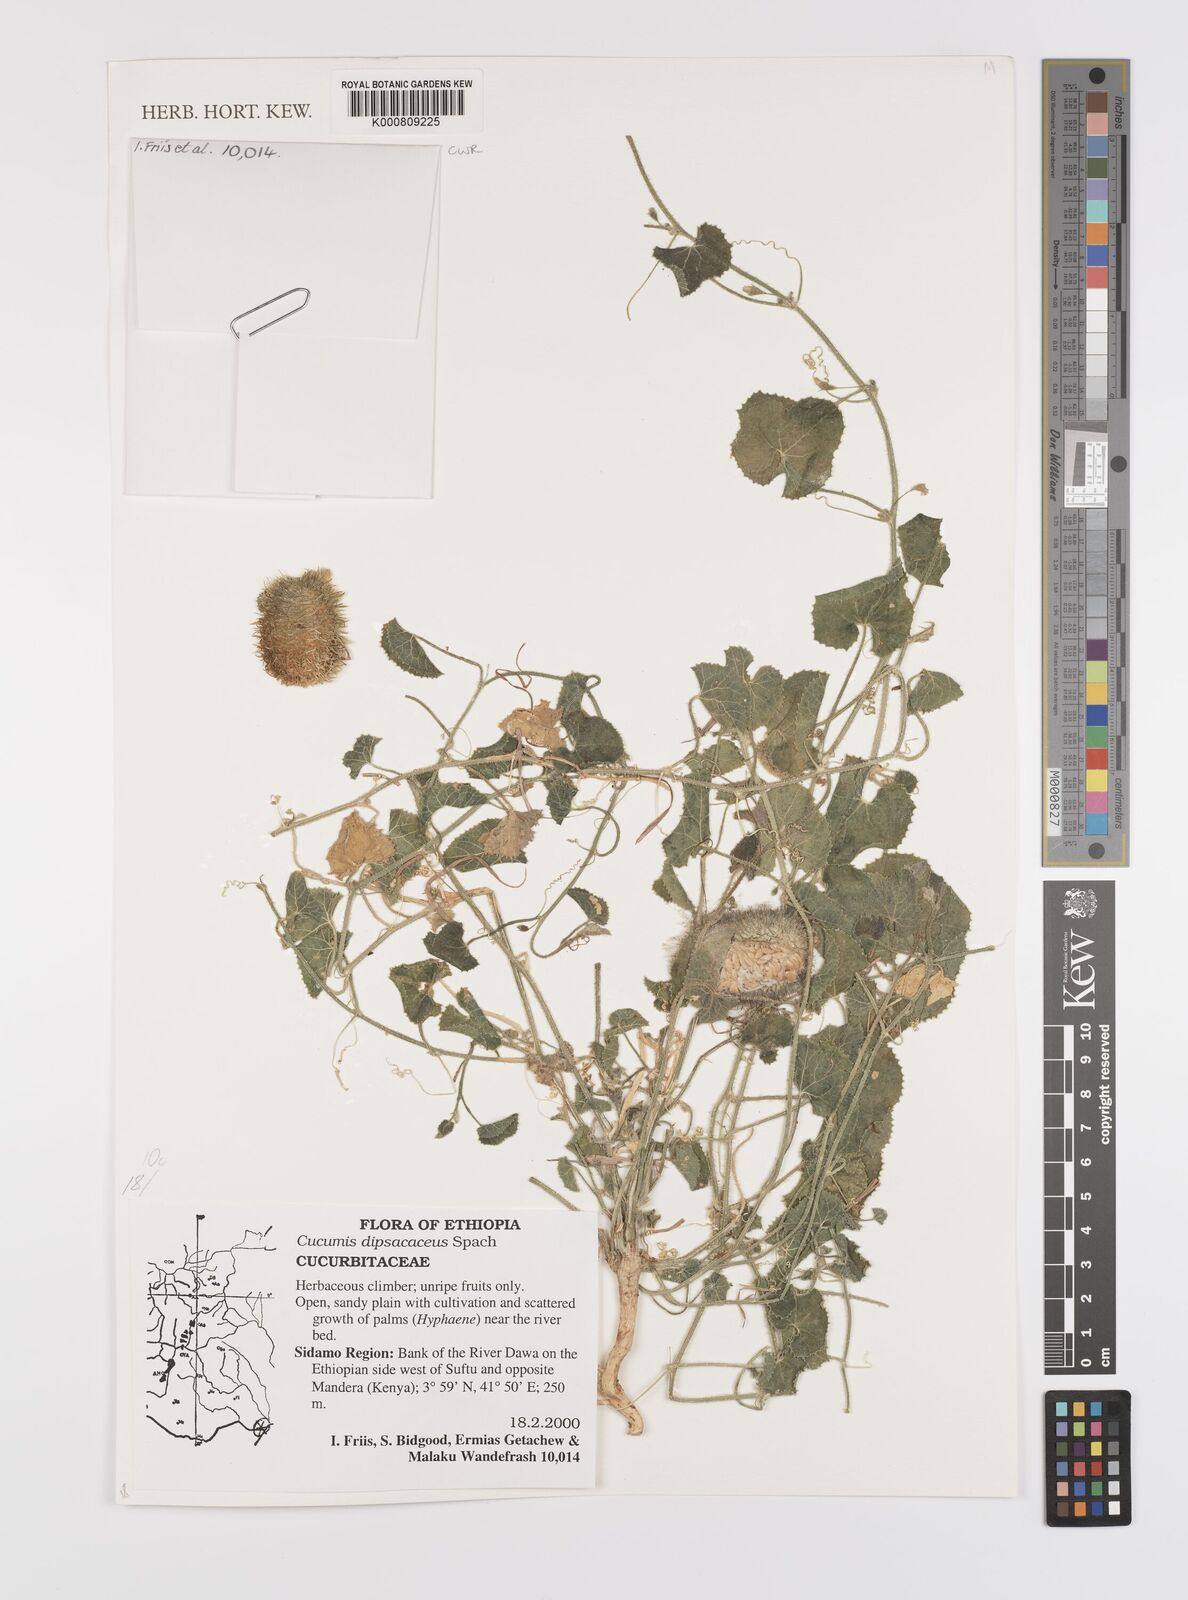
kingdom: Plantae
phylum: Tracheophyta
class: Magnoliopsida
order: Cucurbitales
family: Cucurbitaceae
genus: Cucumis
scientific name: Cucumis dipsaceus
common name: Hedgehog gourd
